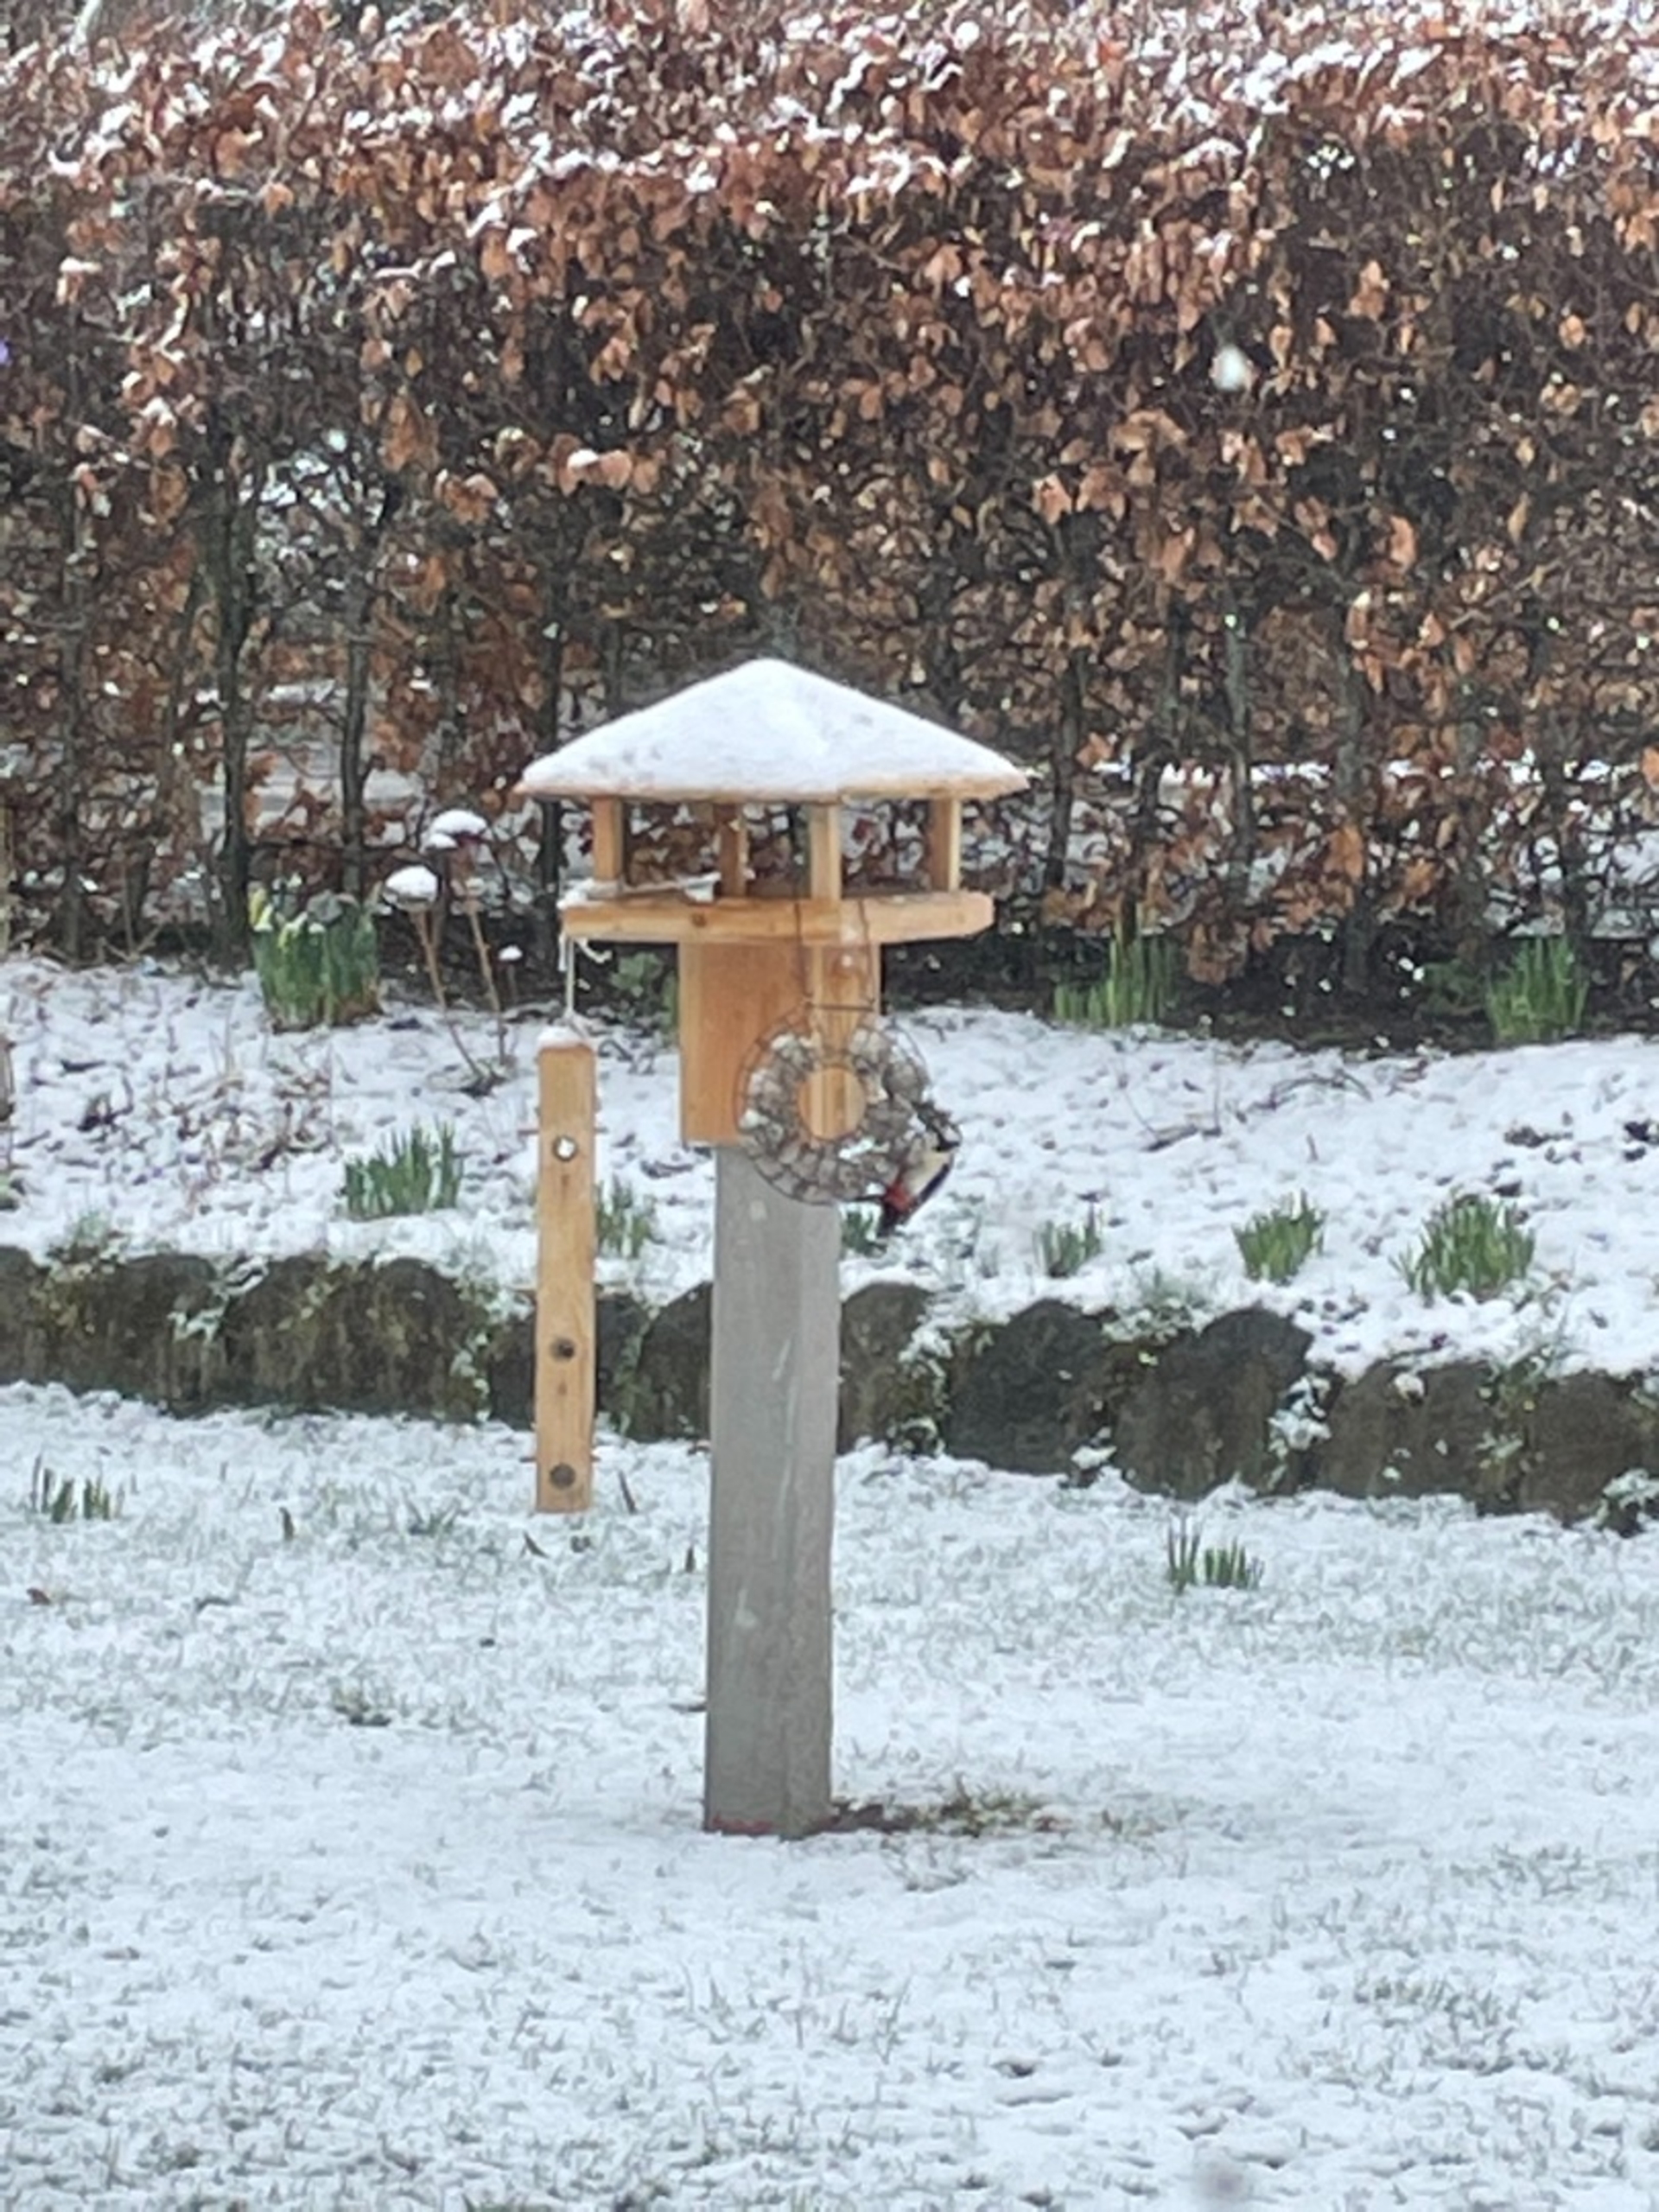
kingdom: Animalia
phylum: Chordata
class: Aves
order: Piciformes
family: Picidae
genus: Dendrocopos
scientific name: Dendrocopos major
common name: Stor flagspætte
